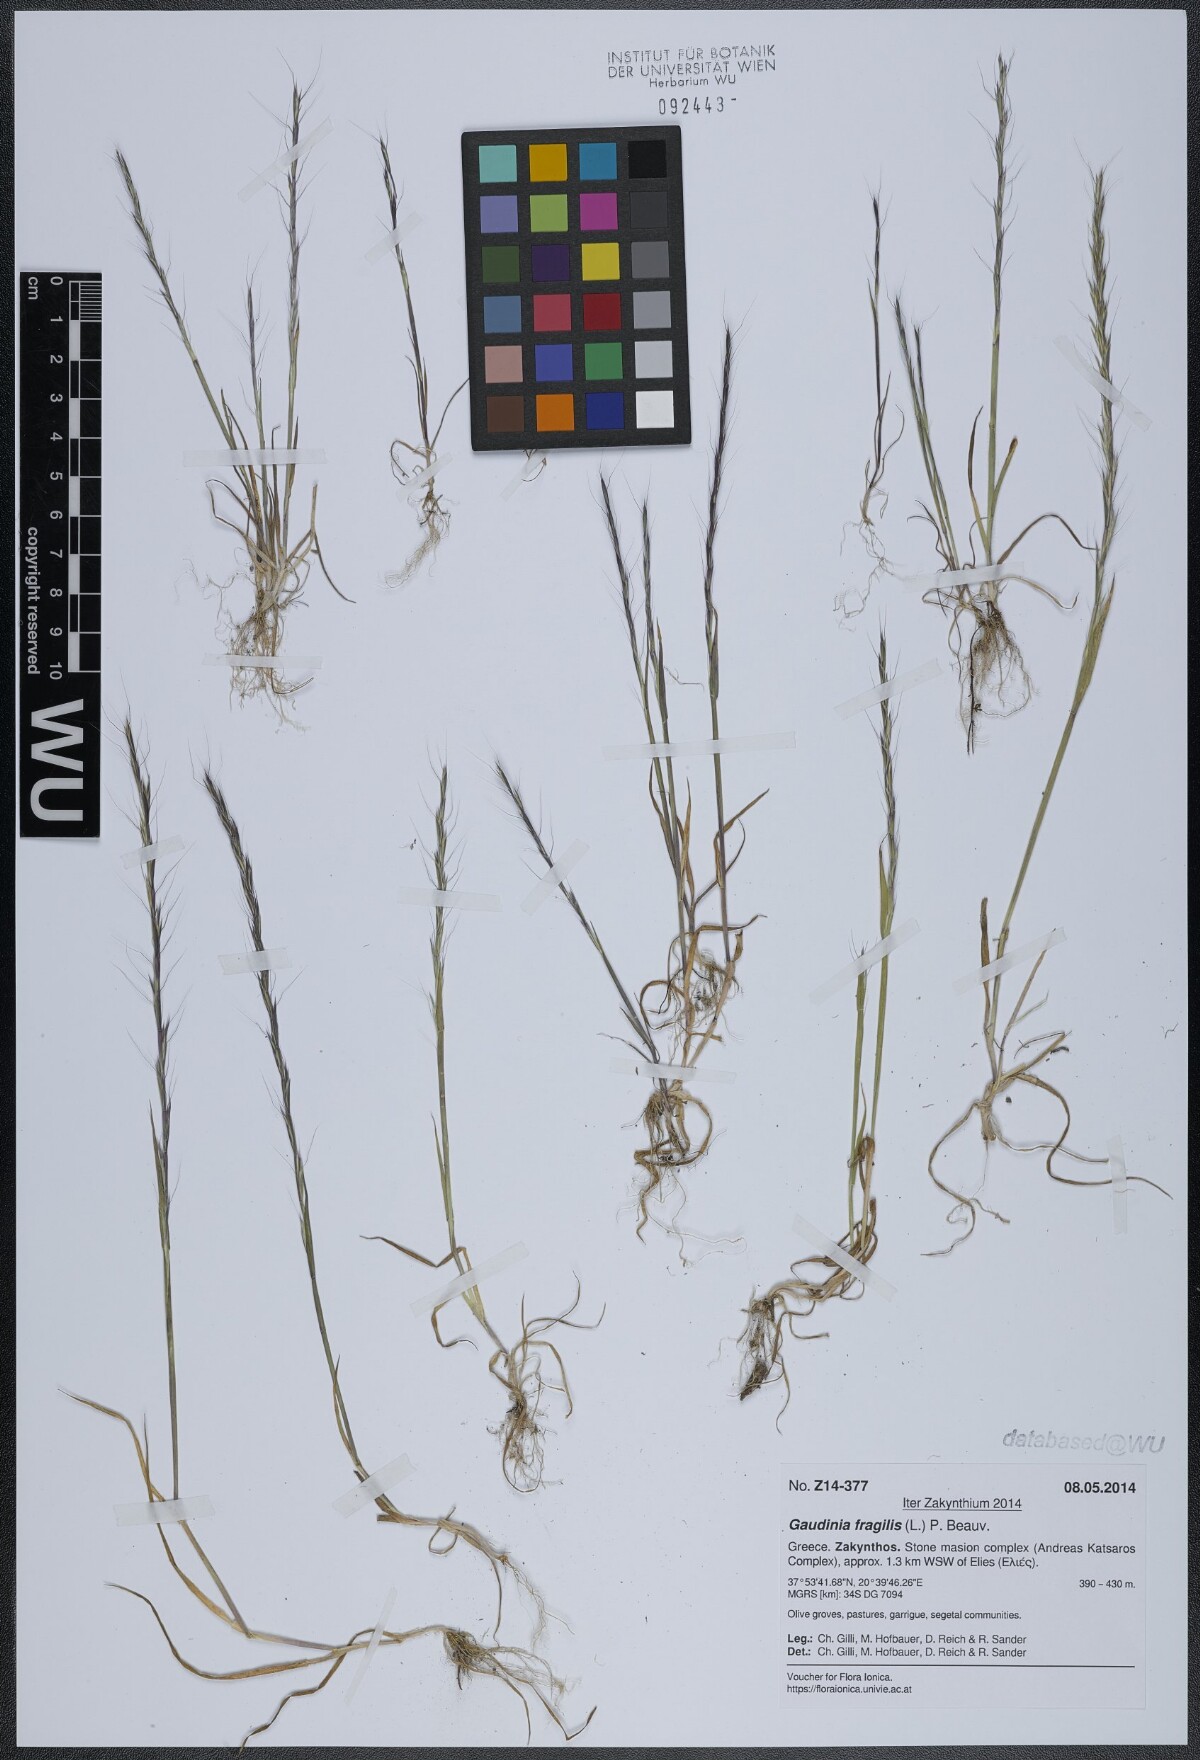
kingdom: Plantae
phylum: Tracheophyta
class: Liliopsida
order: Poales
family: Poaceae
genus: Gaudinia
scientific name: Gaudinia fragilis
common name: French oat-grass
